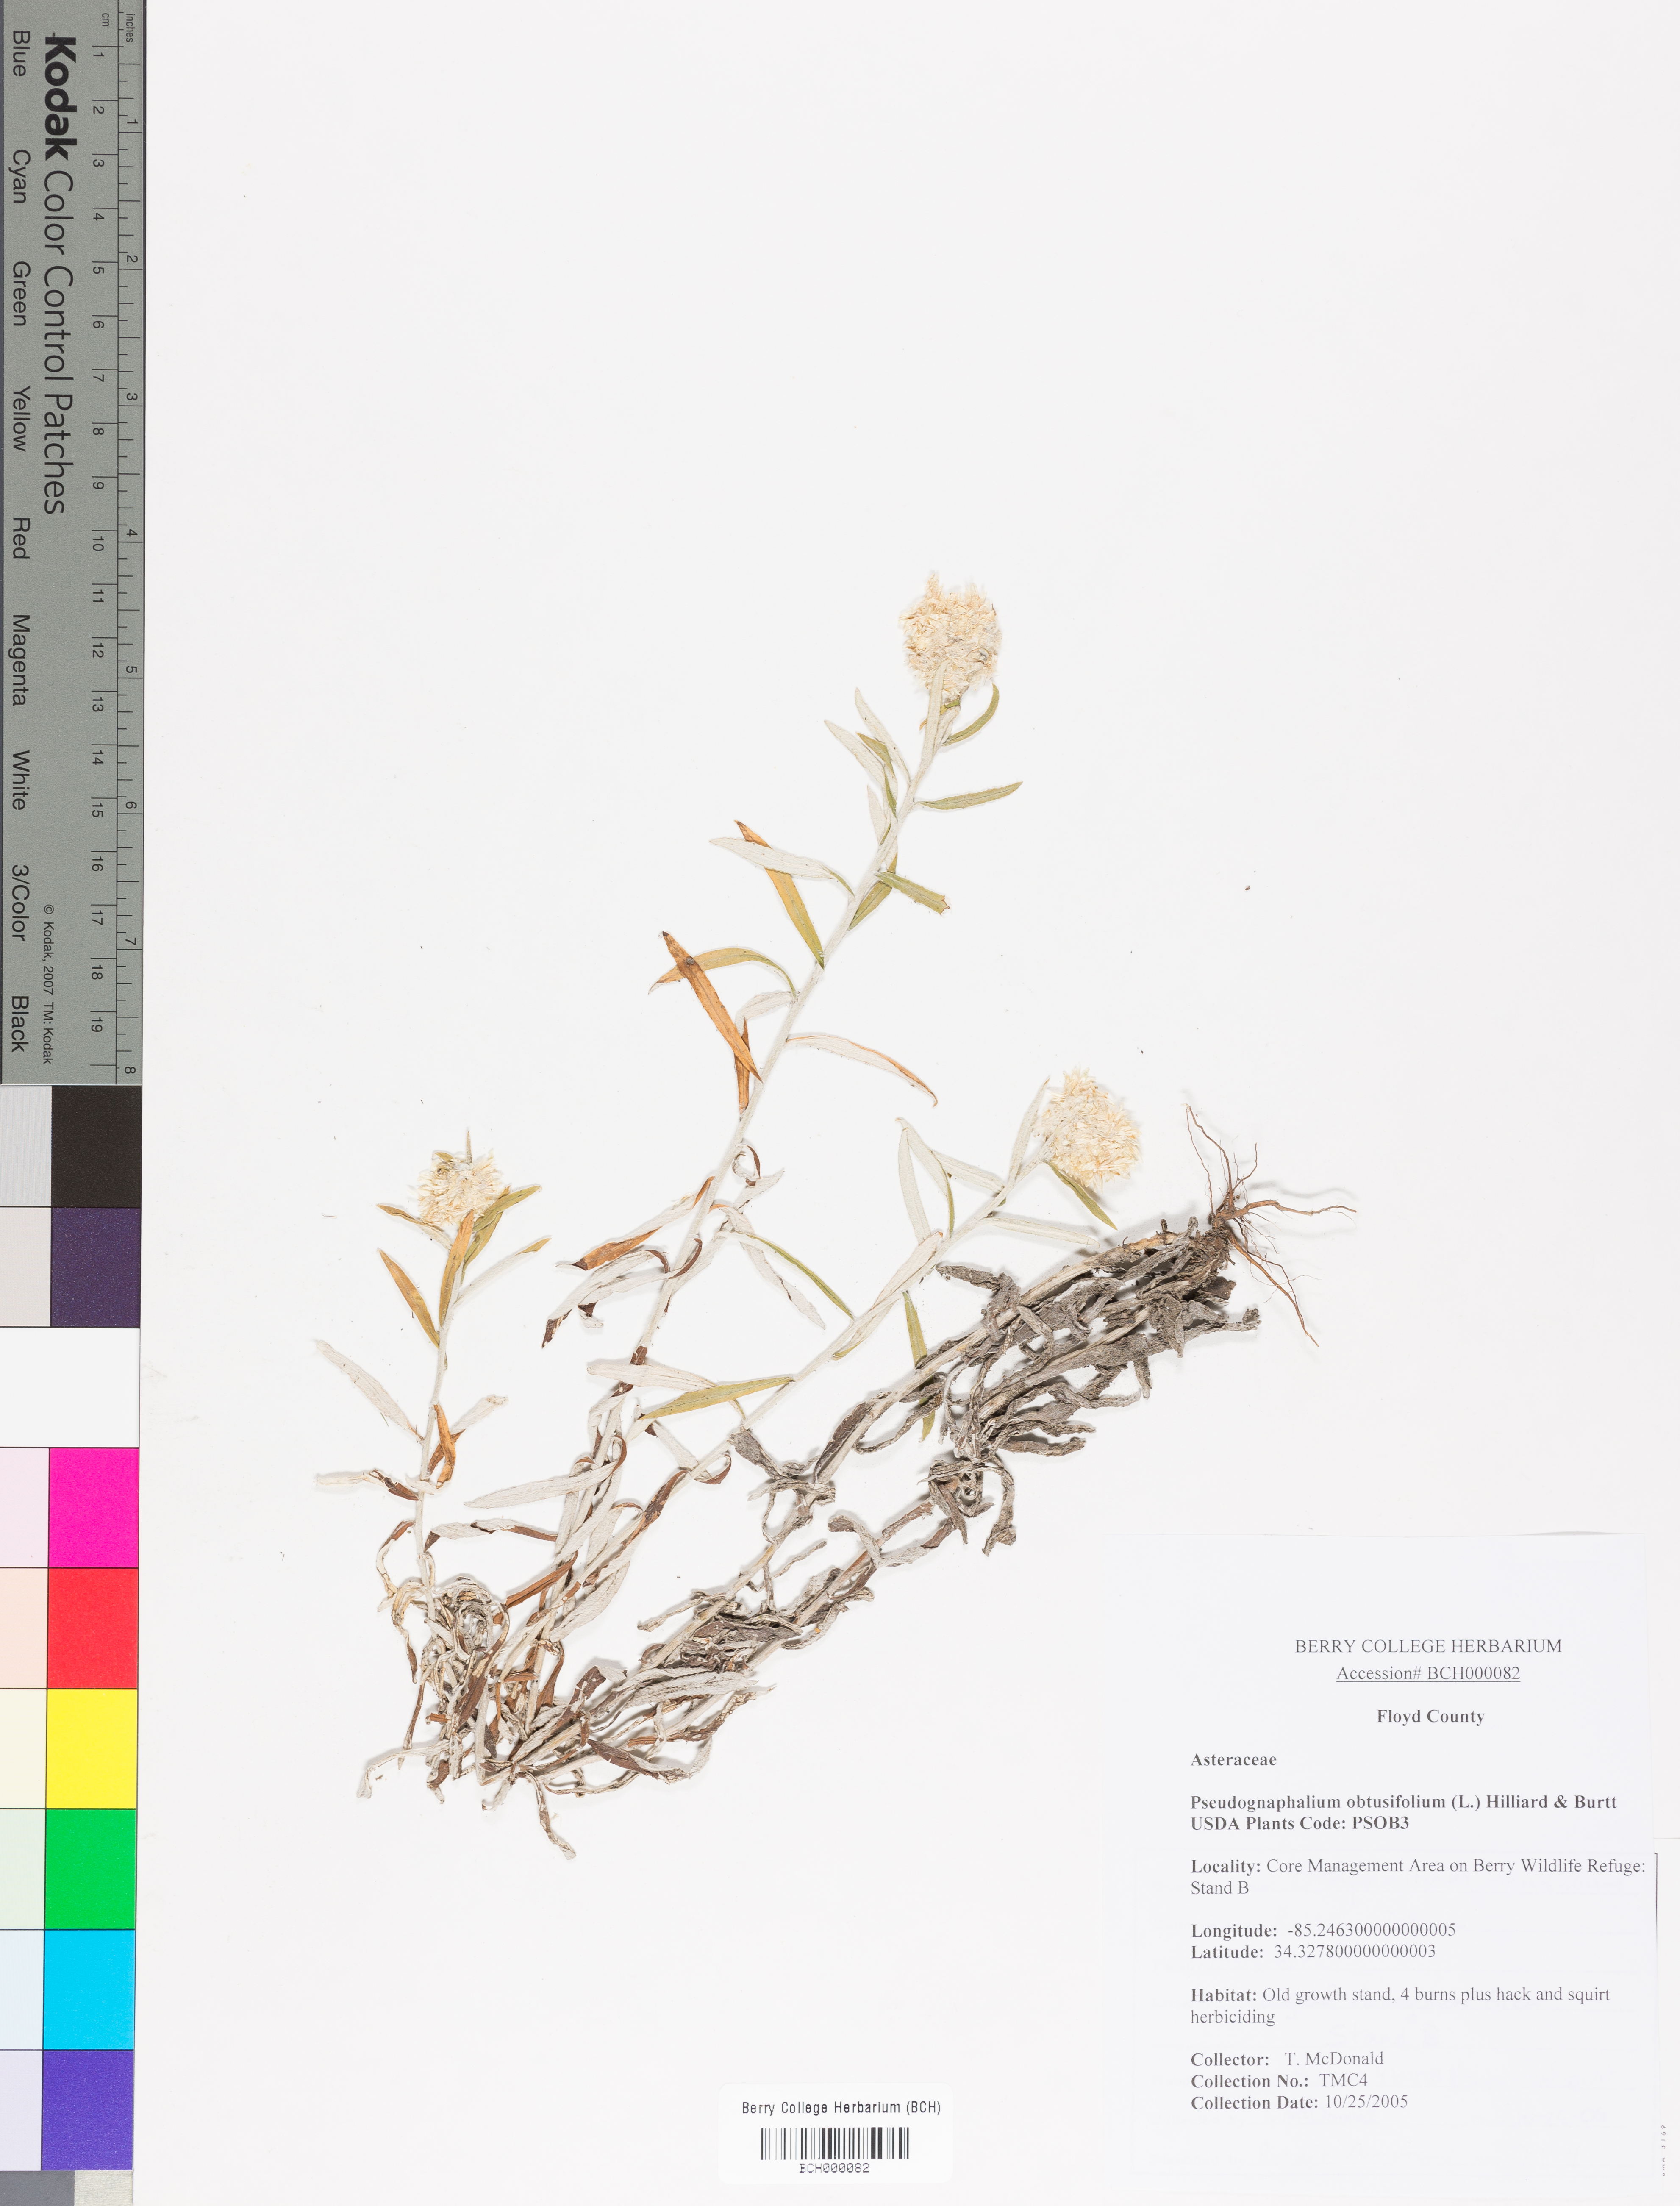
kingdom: Plantae
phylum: Tracheophyta
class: Magnoliopsida
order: Asterales
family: Asteraceae
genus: Pseudognaphalium
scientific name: Pseudognaphalium obtusifolium
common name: Eastern rabbit-tobacco
